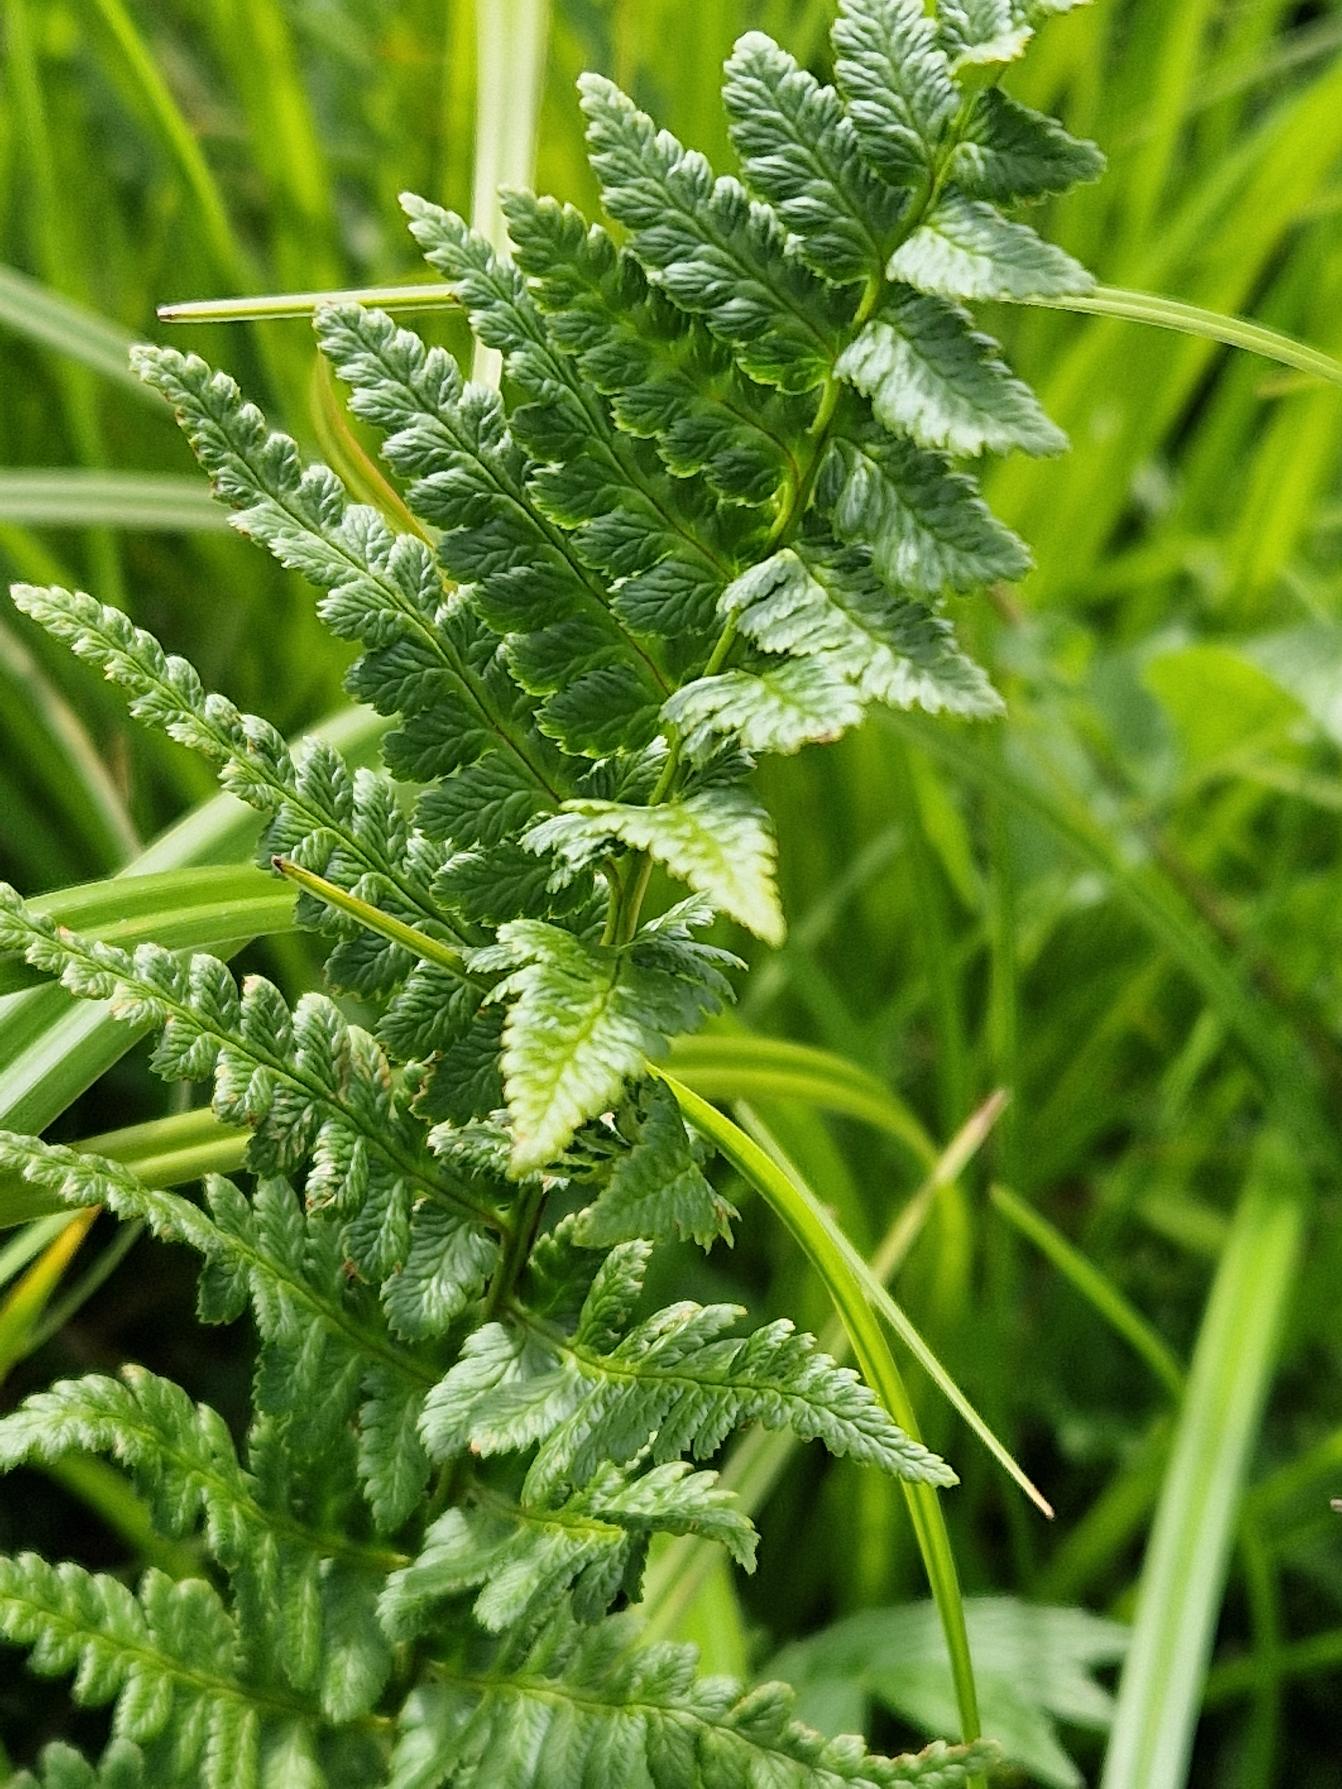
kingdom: Plantae
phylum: Tracheophyta
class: Polypodiopsida
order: Polypodiales
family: Dryopteridaceae
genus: Dryopteris
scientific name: Dryopteris cristata
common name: Butfinnet mangeløv
